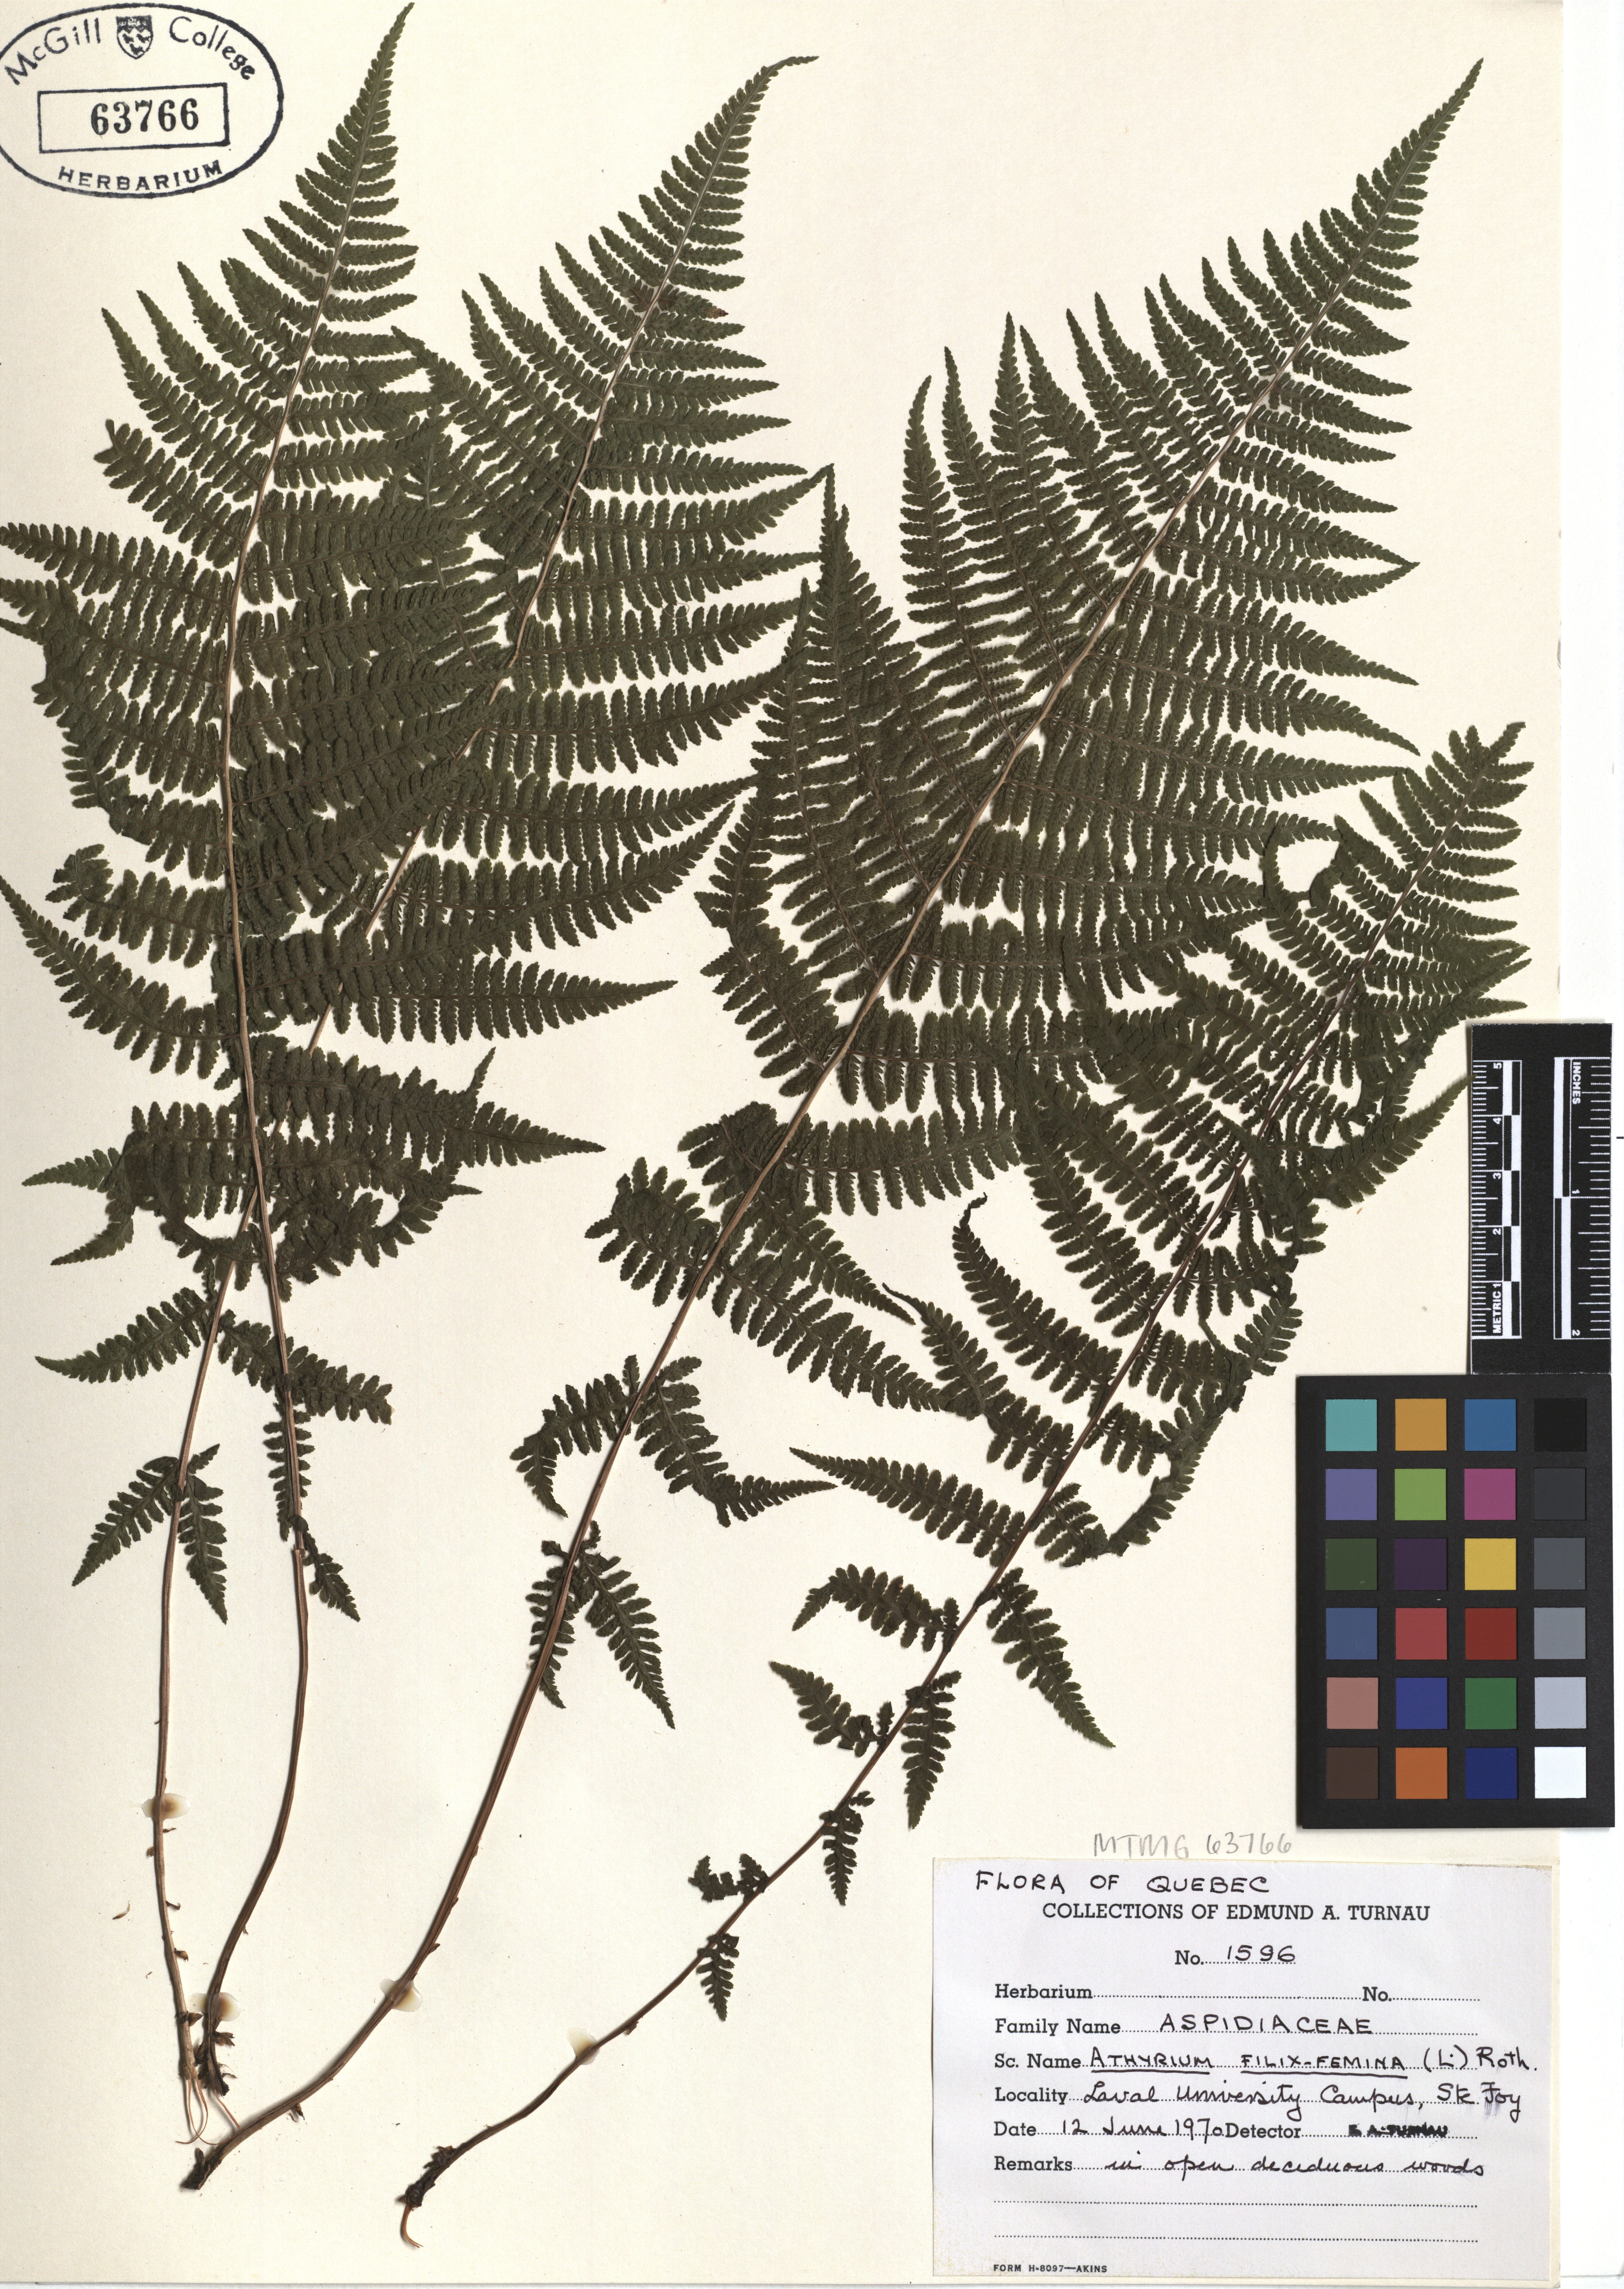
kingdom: Plantae
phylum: Tracheophyta
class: Polypodiopsida
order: Polypodiales
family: Athyriaceae
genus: Athyrium
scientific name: Athyrium filix-femina
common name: Lady fern
